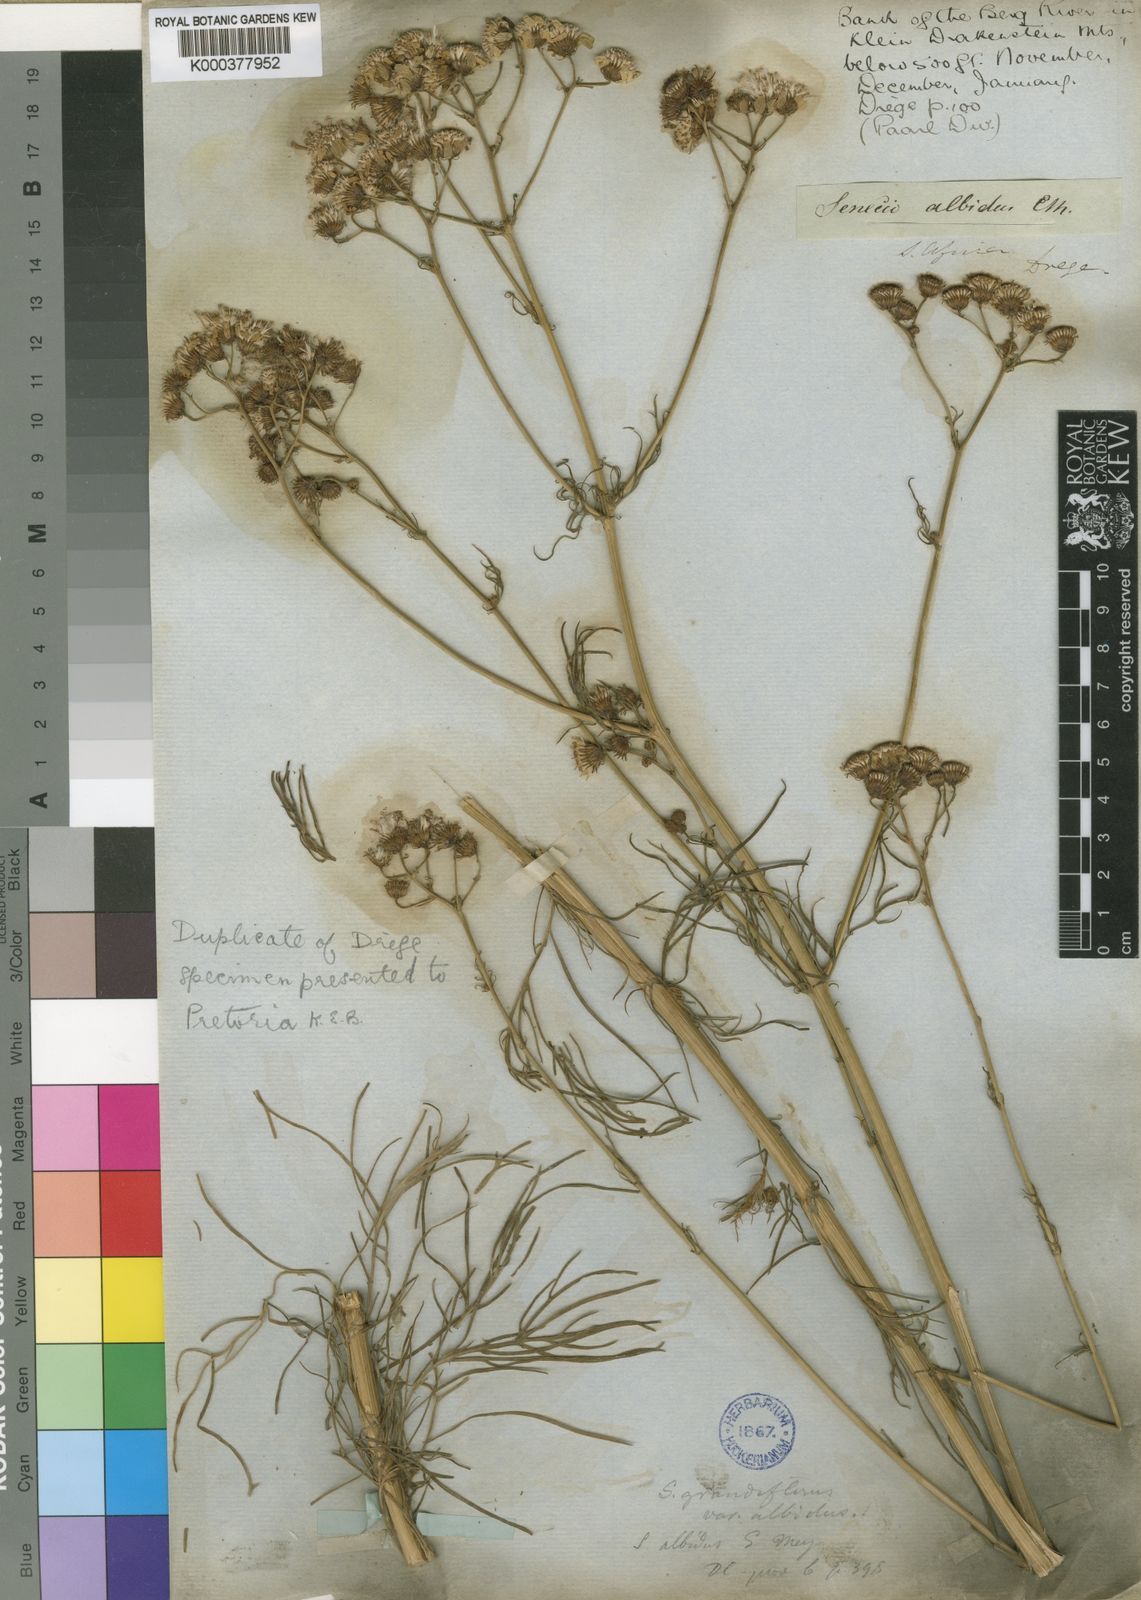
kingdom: Plantae
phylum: Tracheophyta
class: Magnoliopsida
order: Asterales
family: Asteraceae
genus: Senecio
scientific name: Senecio
